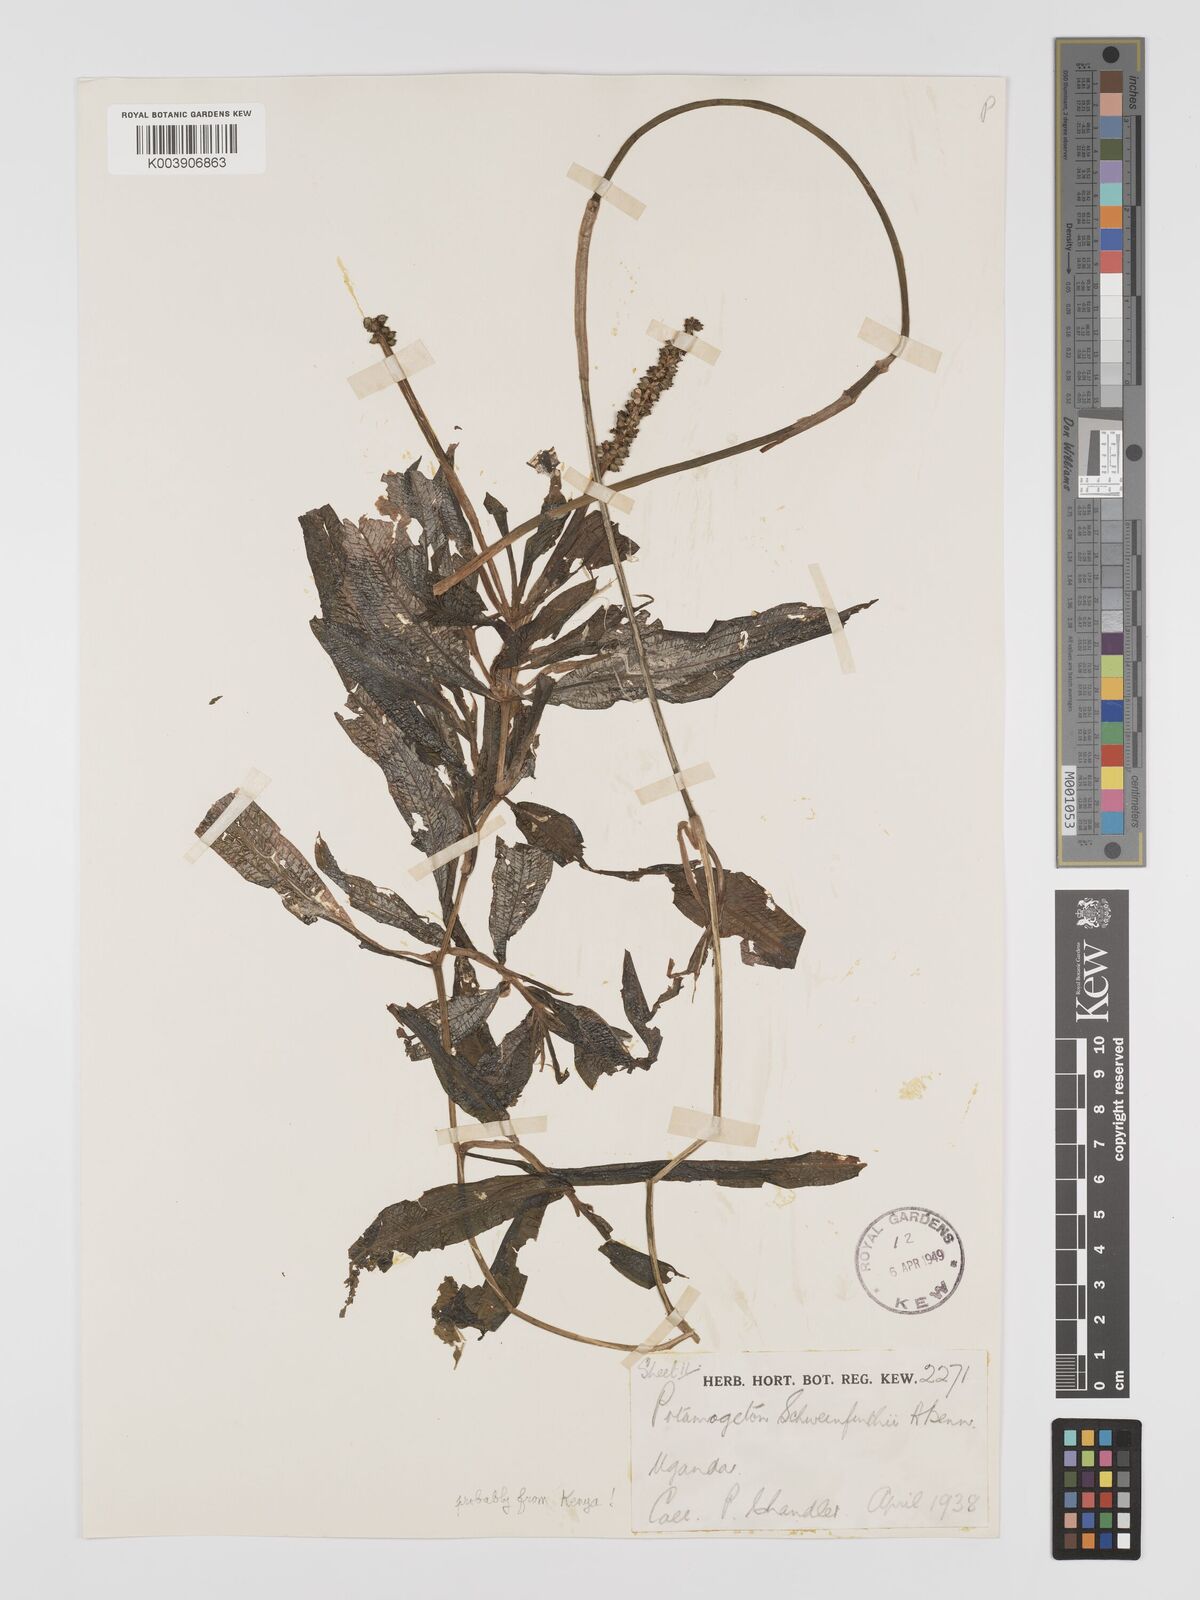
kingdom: Plantae
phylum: Tracheophyta
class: Liliopsida
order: Alismatales
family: Potamogetonaceae
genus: Potamogeton
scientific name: Potamogeton schweinfurthii
